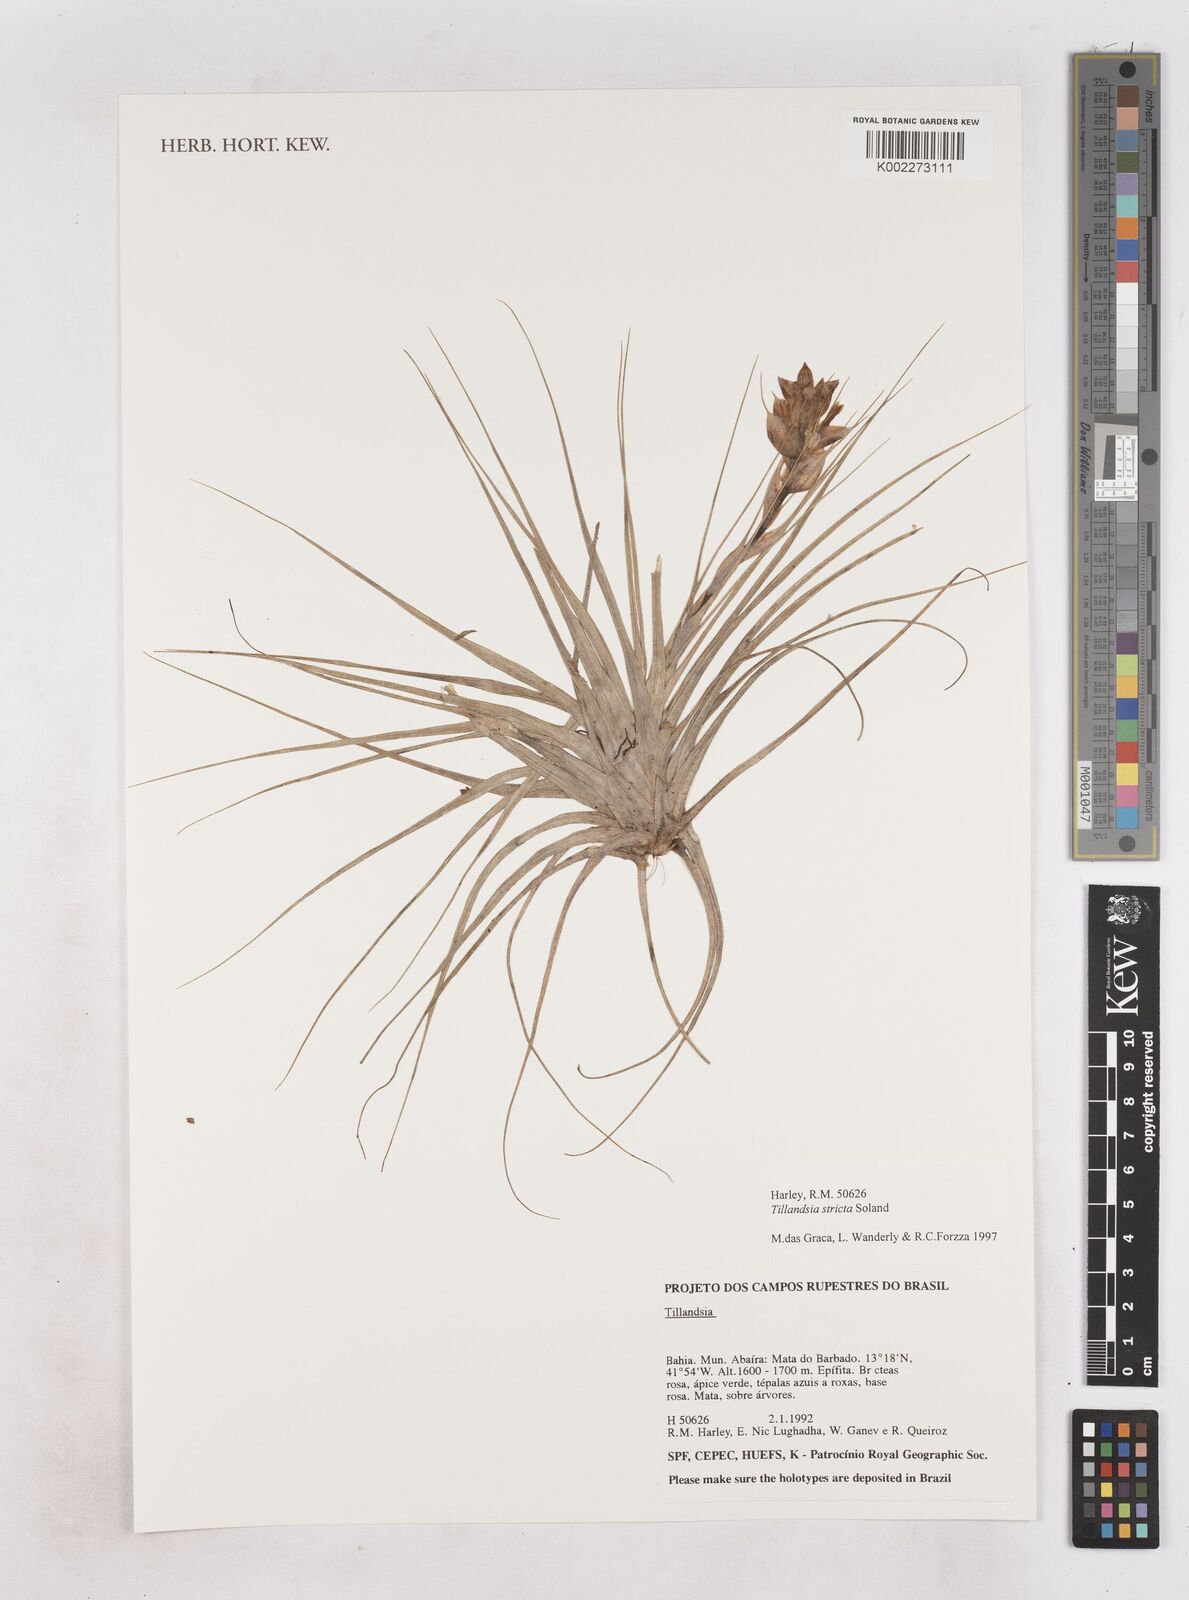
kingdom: Plantae
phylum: Tracheophyta
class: Liliopsida
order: Poales
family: Bromeliaceae
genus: Tillandsia
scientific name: Tillandsia stricta
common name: Airplant
